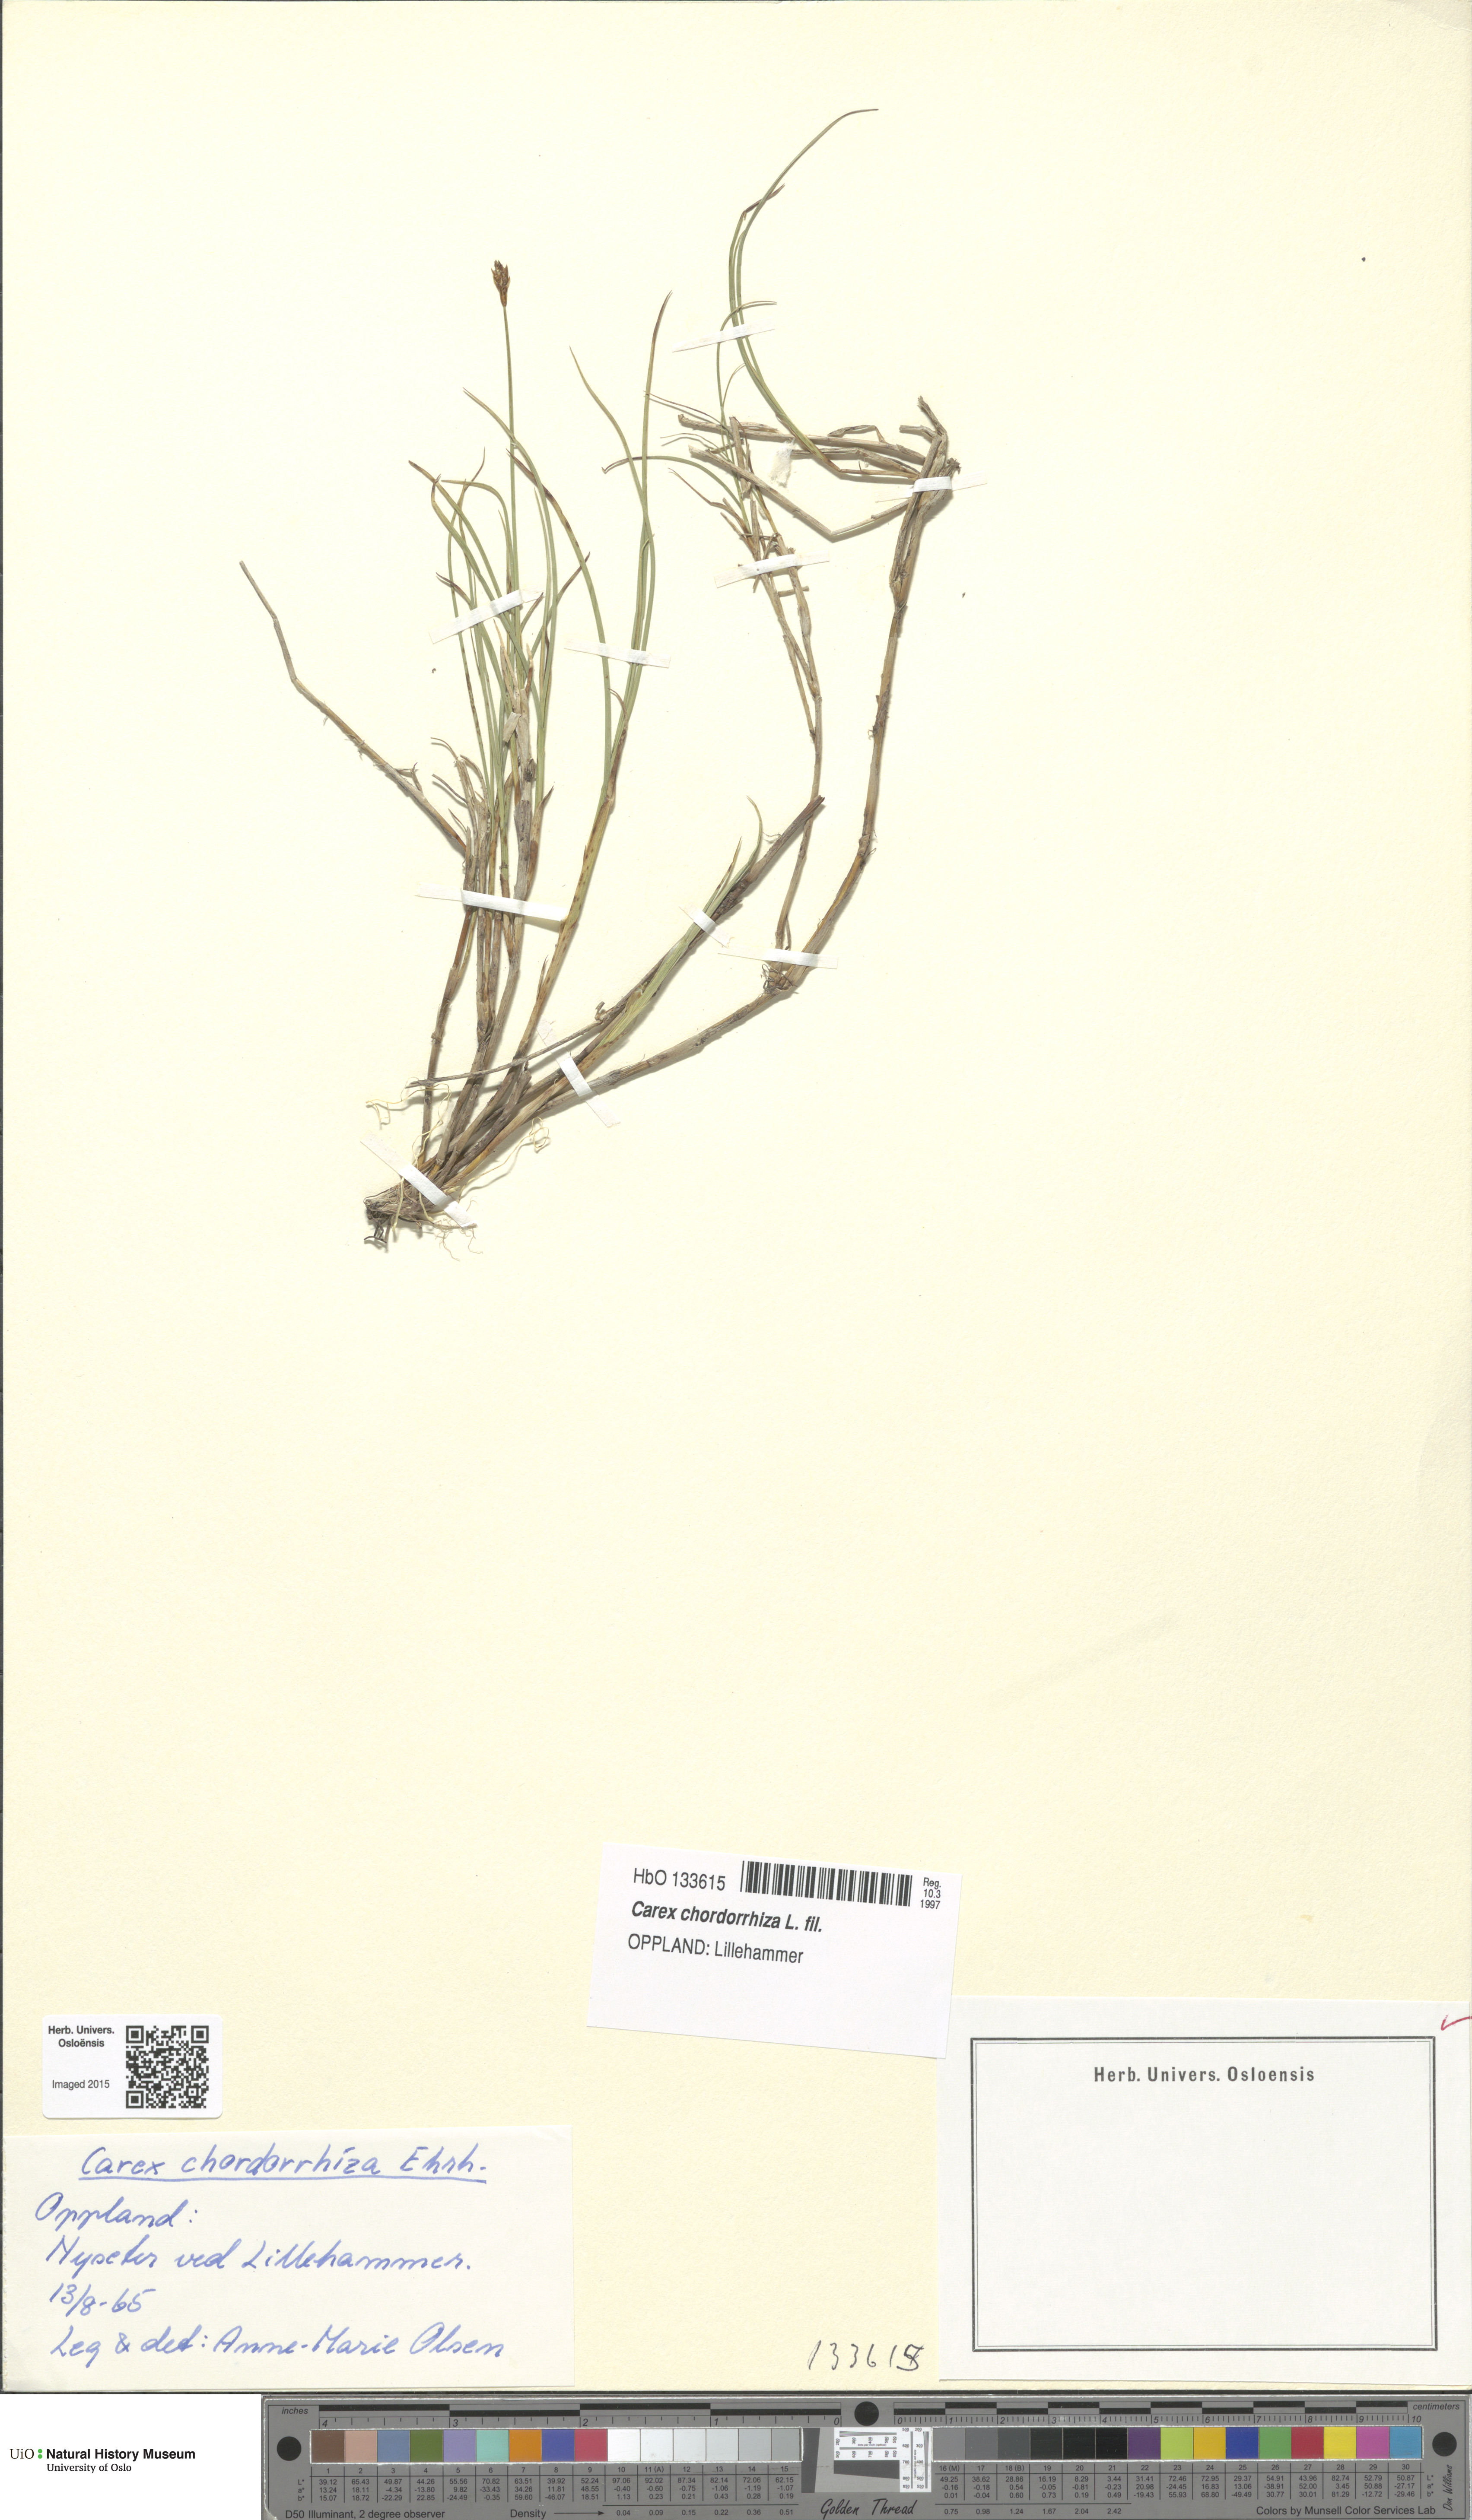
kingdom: Plantae
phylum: Tracheophyta
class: Liliopsida
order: Poales
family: Cyperaceae
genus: Carex
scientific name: Carex chordorrhiza
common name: String sedge
